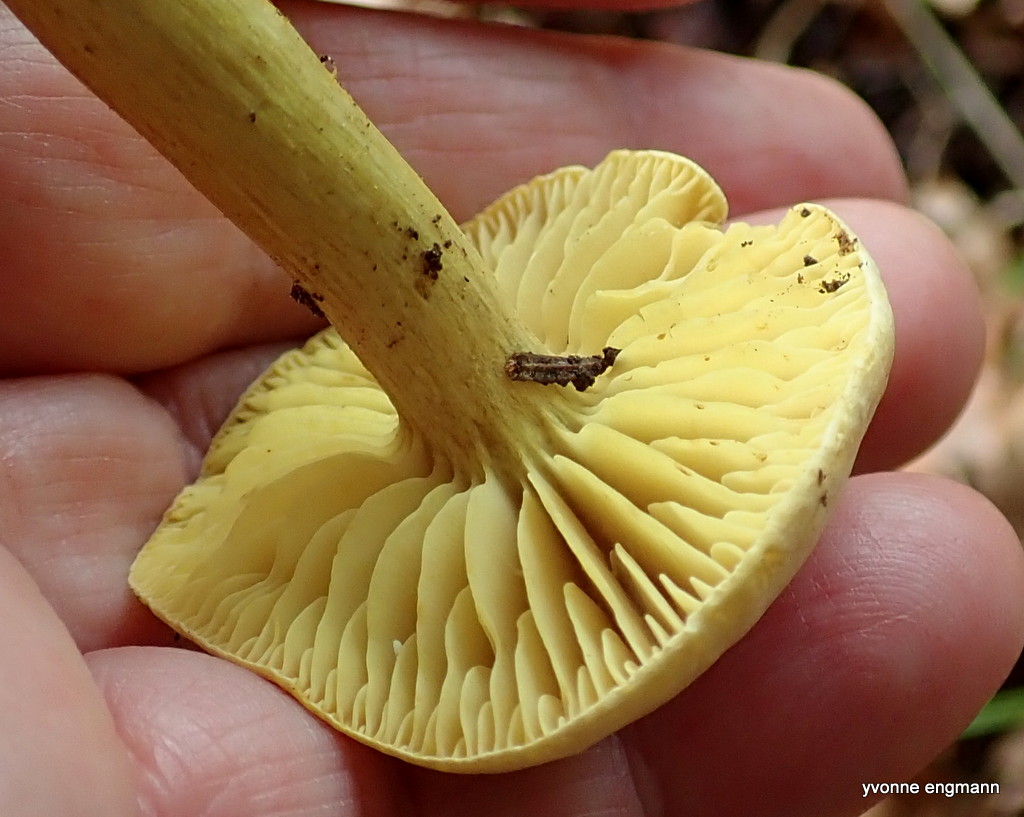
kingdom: Fungi
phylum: Basidiomycota
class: Agaricomycetes
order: Agaricales
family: Tricholomataceae
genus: Tricholoma
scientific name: Tricholoma sulphureum
